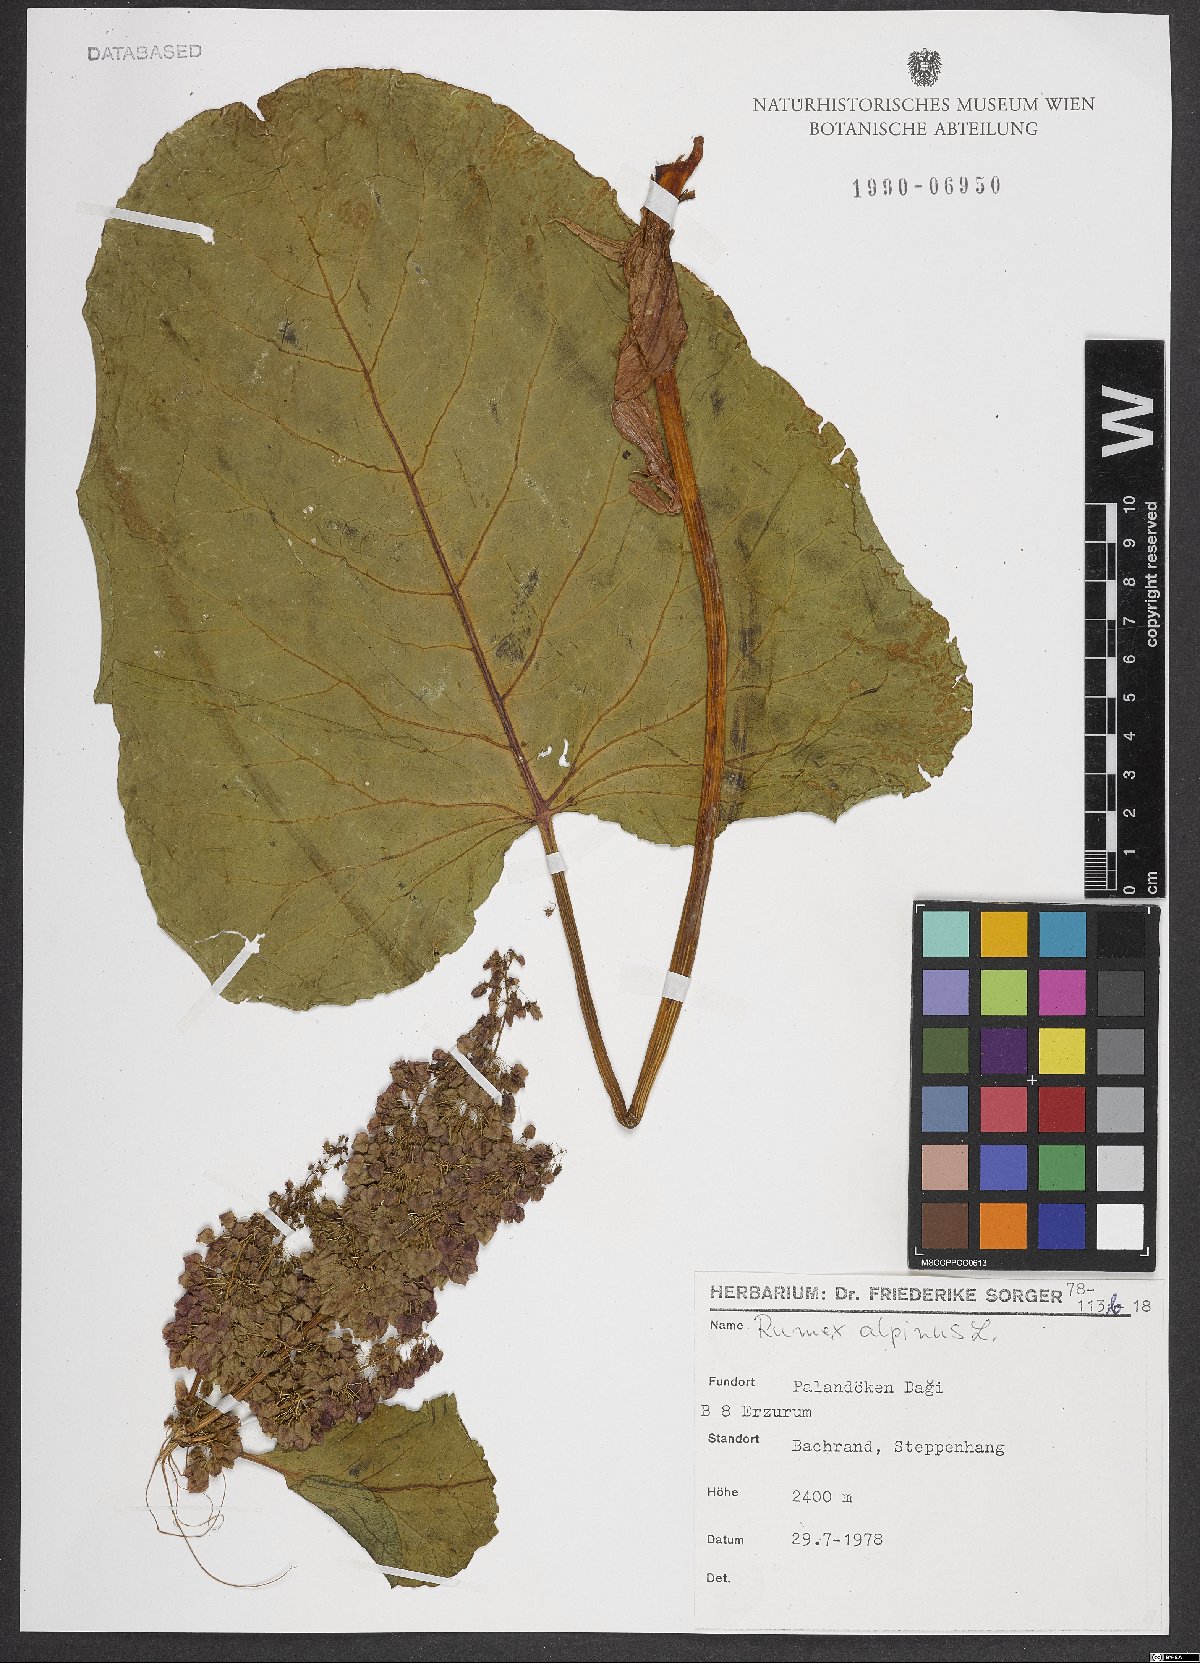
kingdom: Plantae
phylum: Tracheophyta
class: Magnoliopsida
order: Caryophyllales
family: Polygonaceae
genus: Rumex
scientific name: Rumex alpinus
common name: Alpine dock
